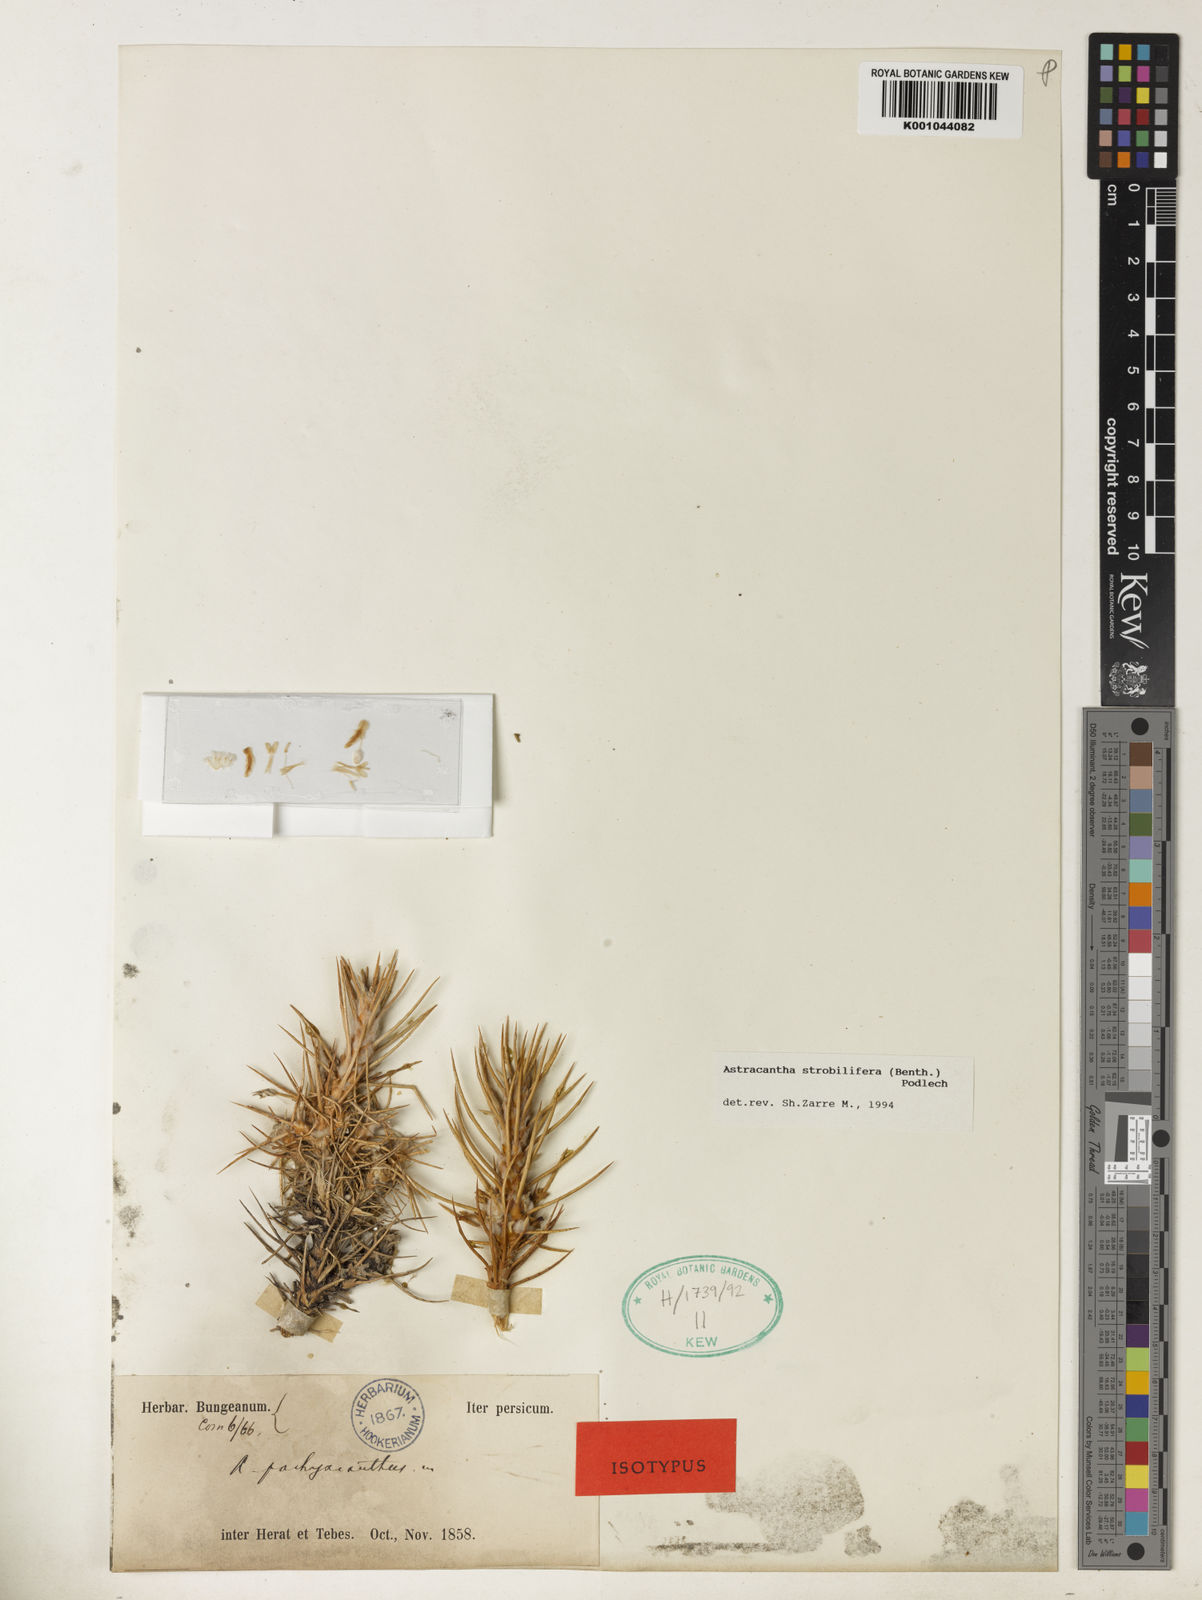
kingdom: Plantae
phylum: Tracheophyta
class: Magnoliopsida
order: Fabales
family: Fabaceae
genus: Astragalus
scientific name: Astragalus
